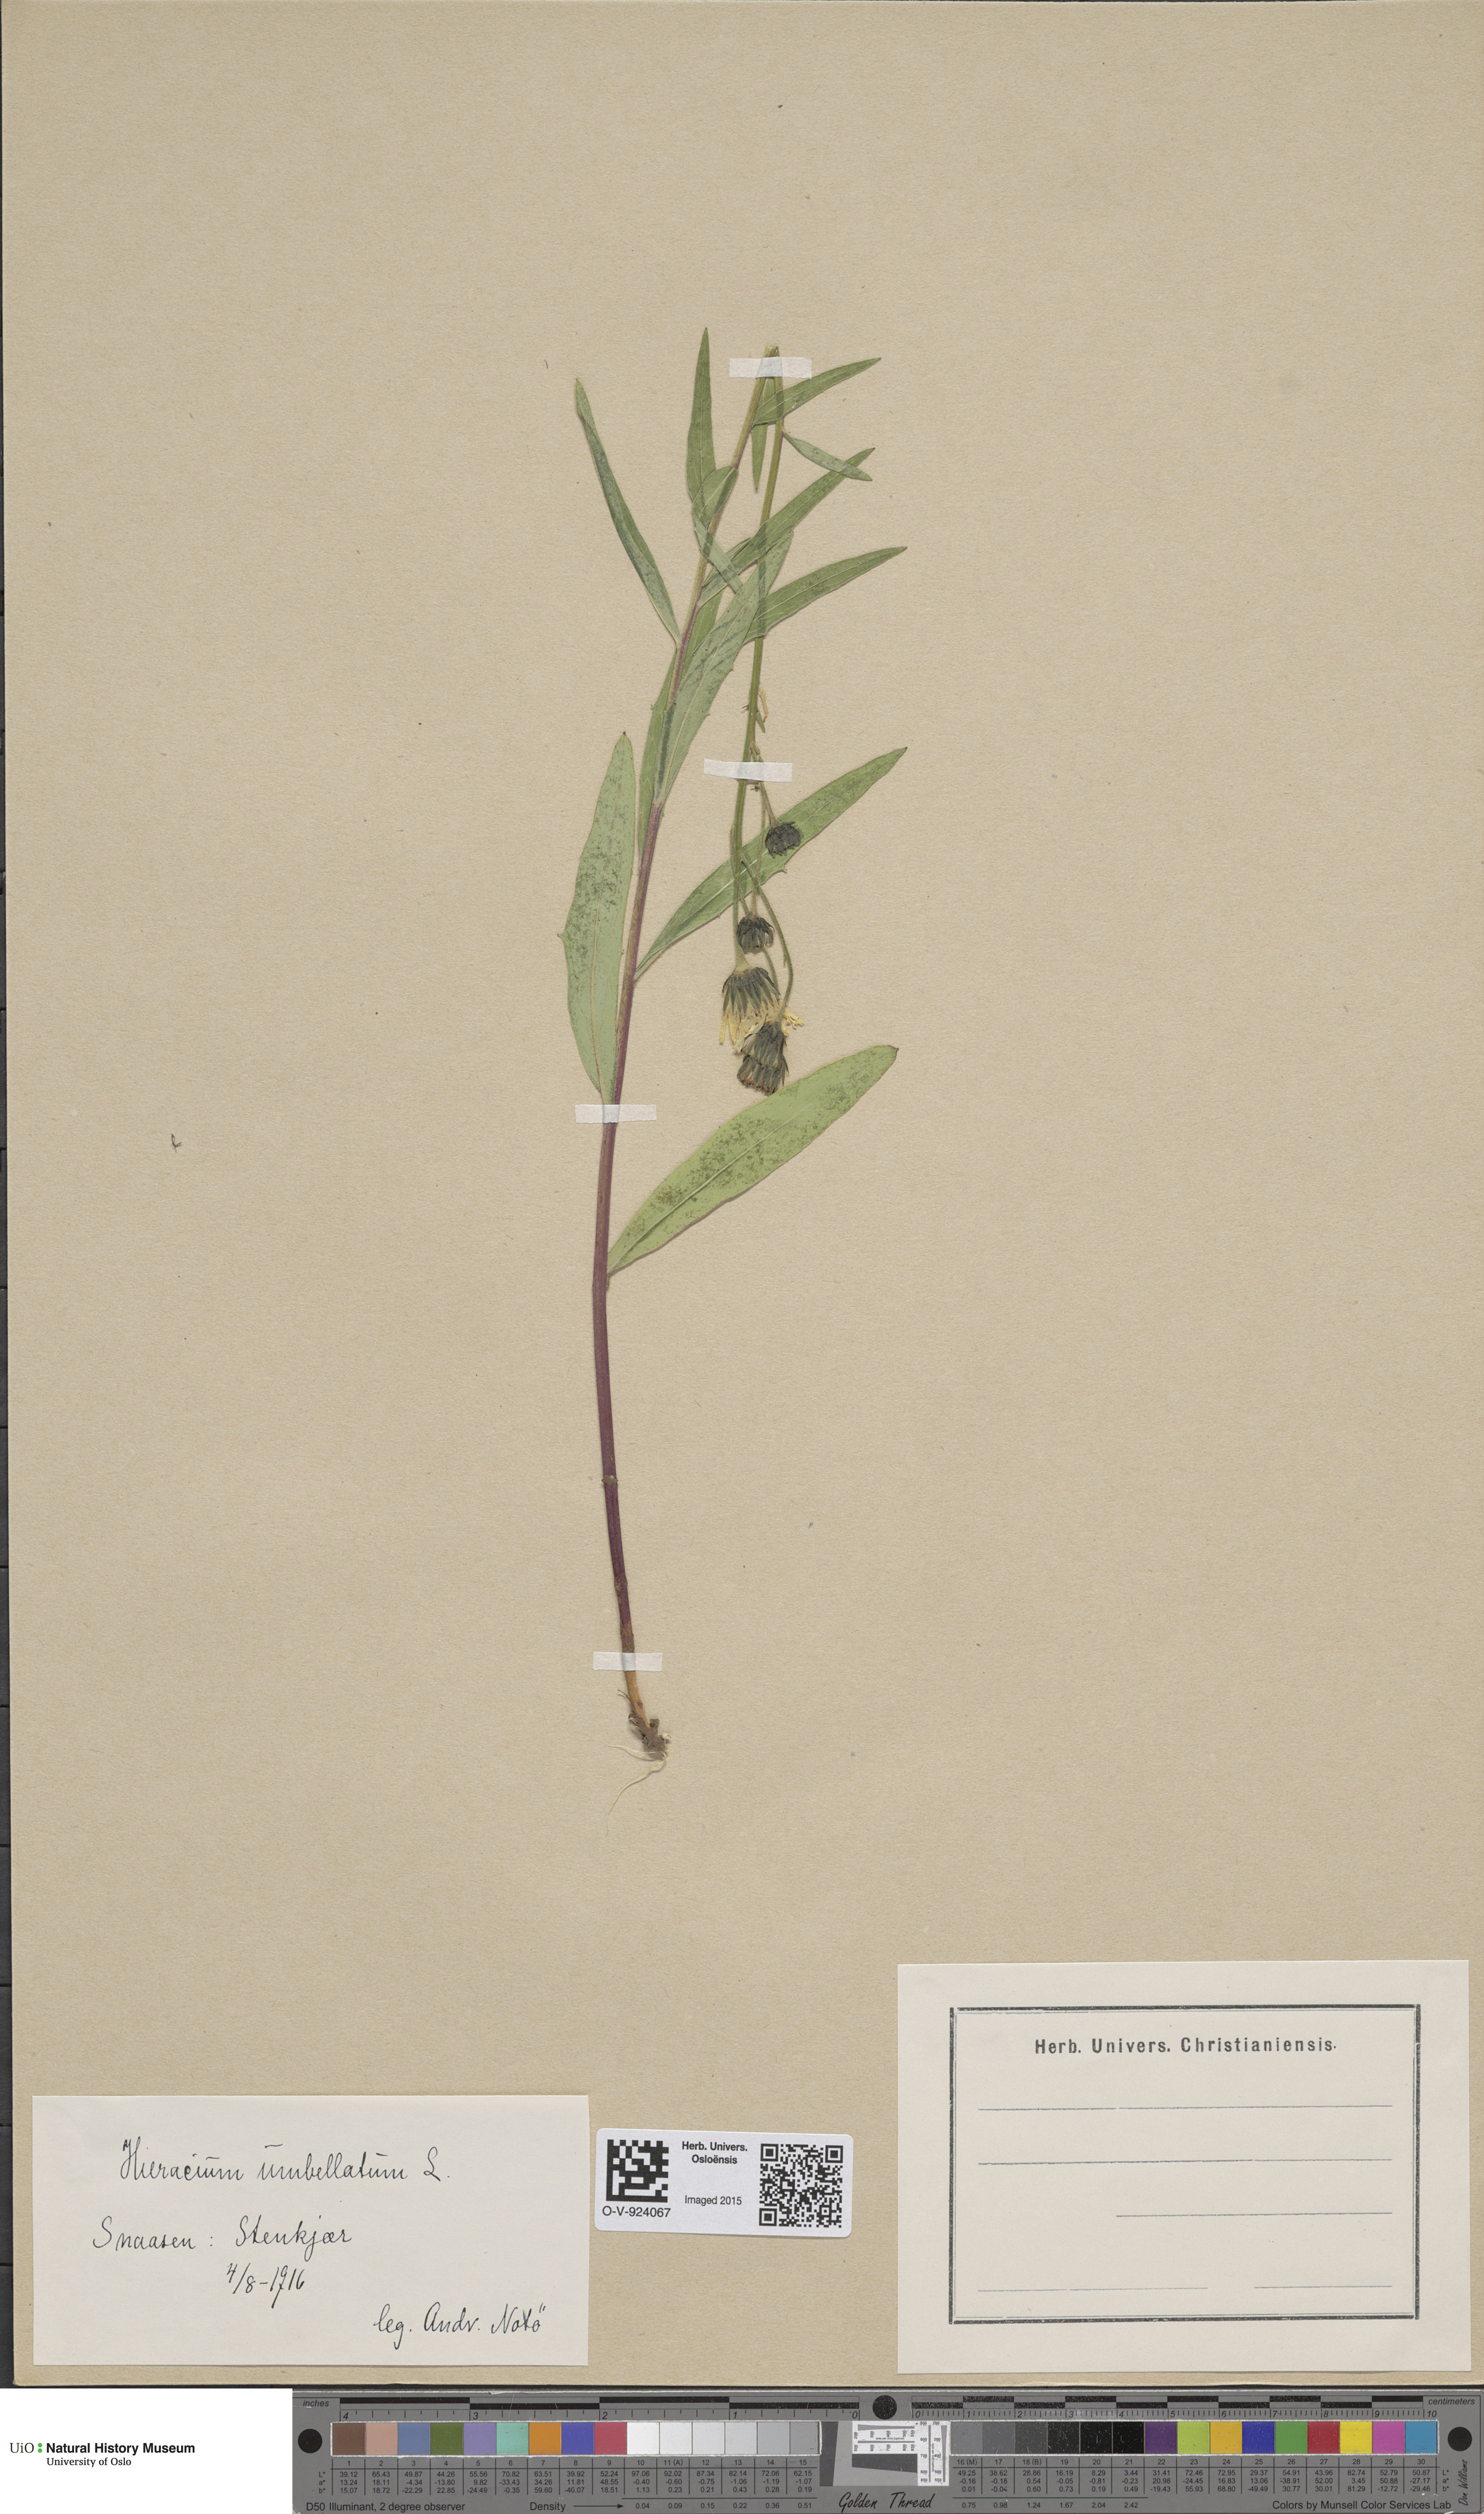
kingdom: Plantae
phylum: Tracheophyta
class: Magnoliopsida
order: Asterales
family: Asteraceae
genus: Hieracium
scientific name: Hieracium umbellatum
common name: Northern hawkweed
